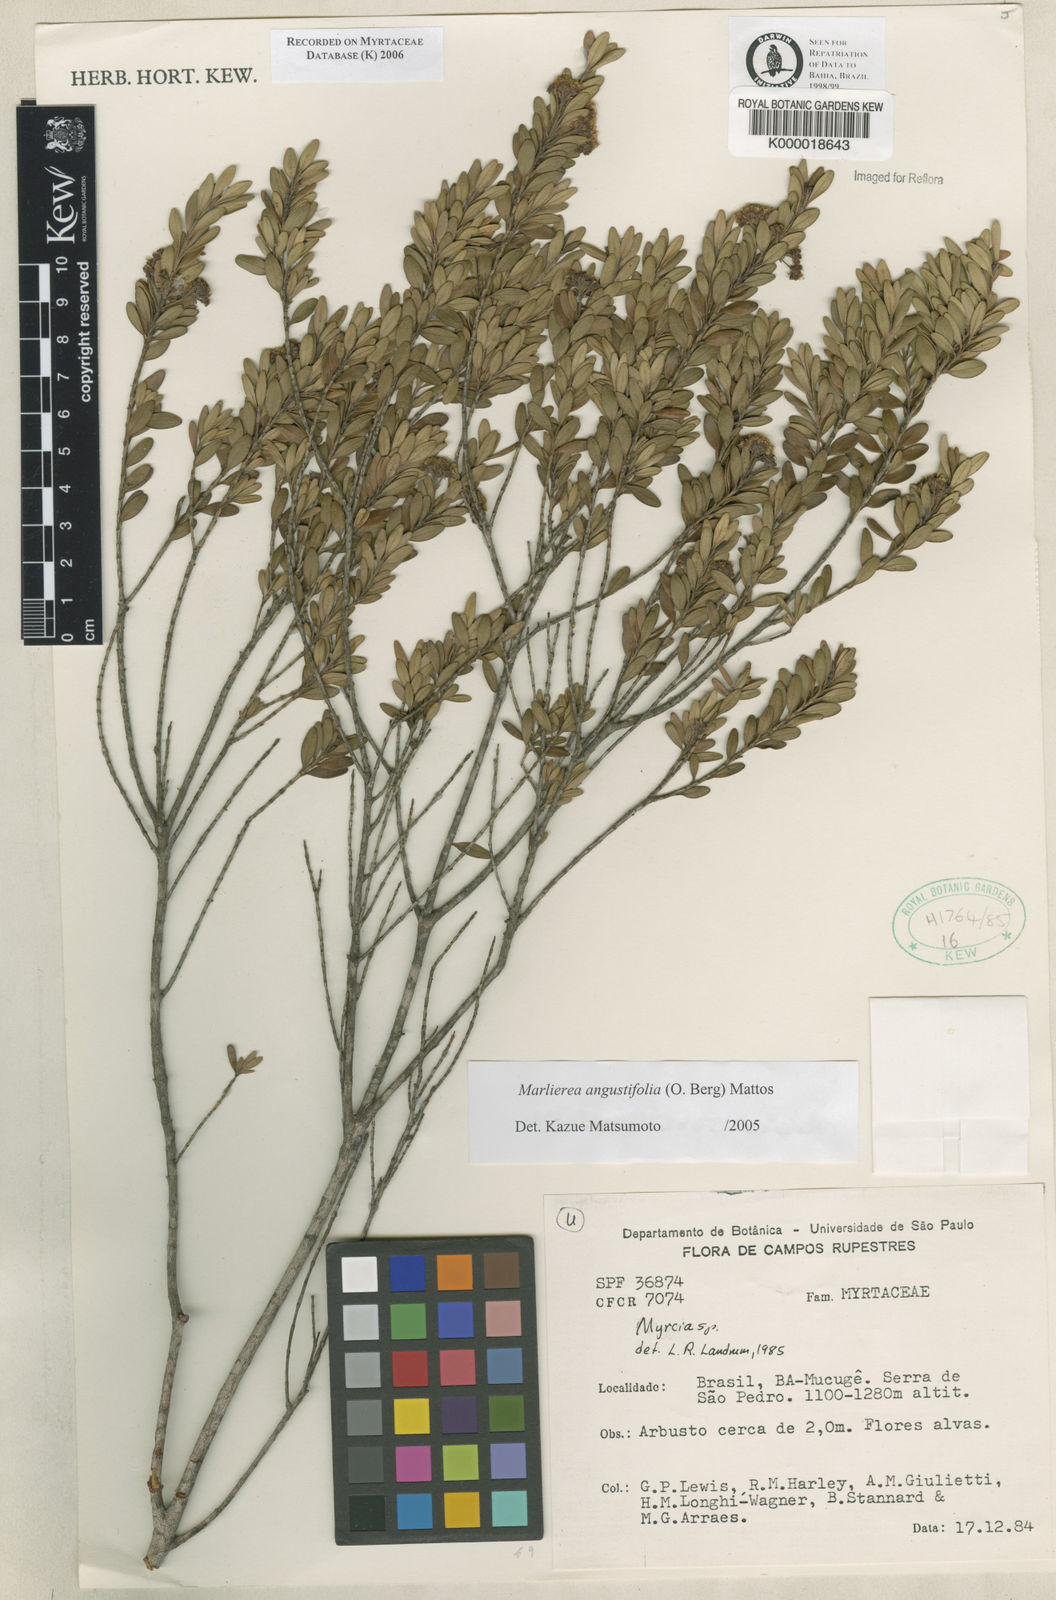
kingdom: Plantae
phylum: Tracheophyta
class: Magnoliopsida
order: Myrtales
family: Myrtaceae
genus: Myrcia
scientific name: Myrcia
